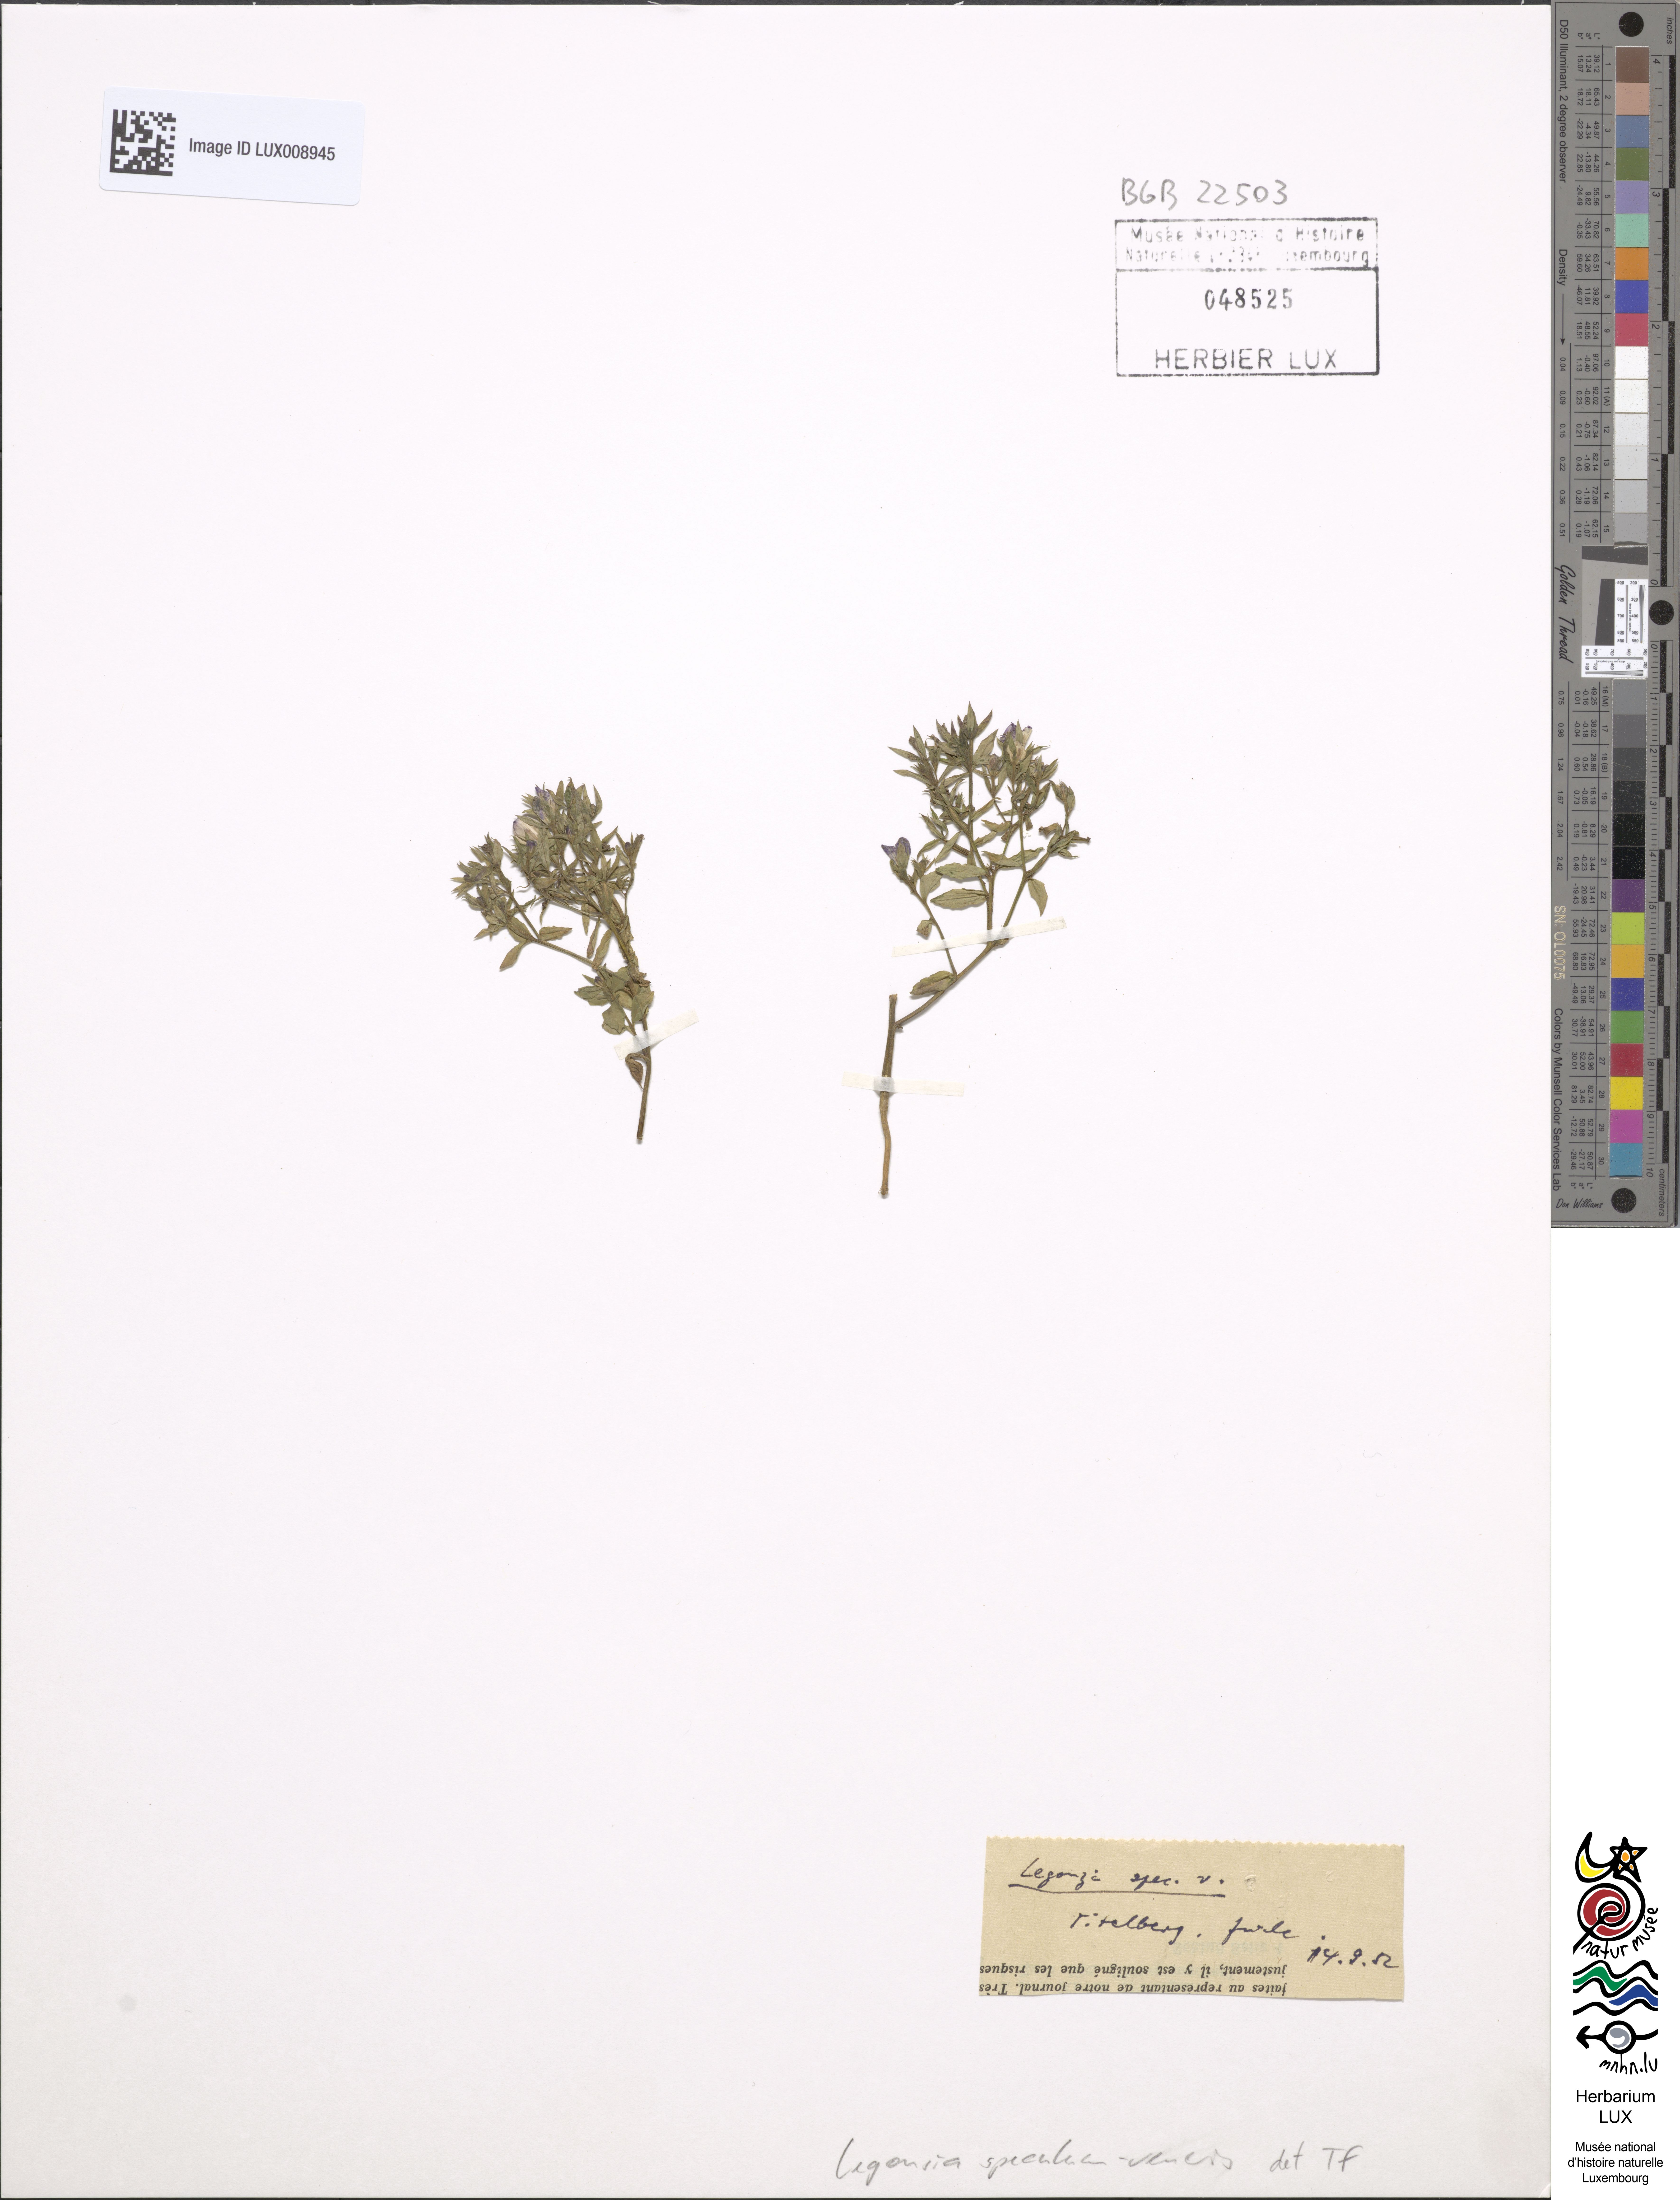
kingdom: Plantae
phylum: Tracheophyta
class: Magnoliopsida
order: Asterales
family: Campanulaceae
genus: Legousia
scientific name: Legousia speculum-veneris
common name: Large venus's-looking-glass
